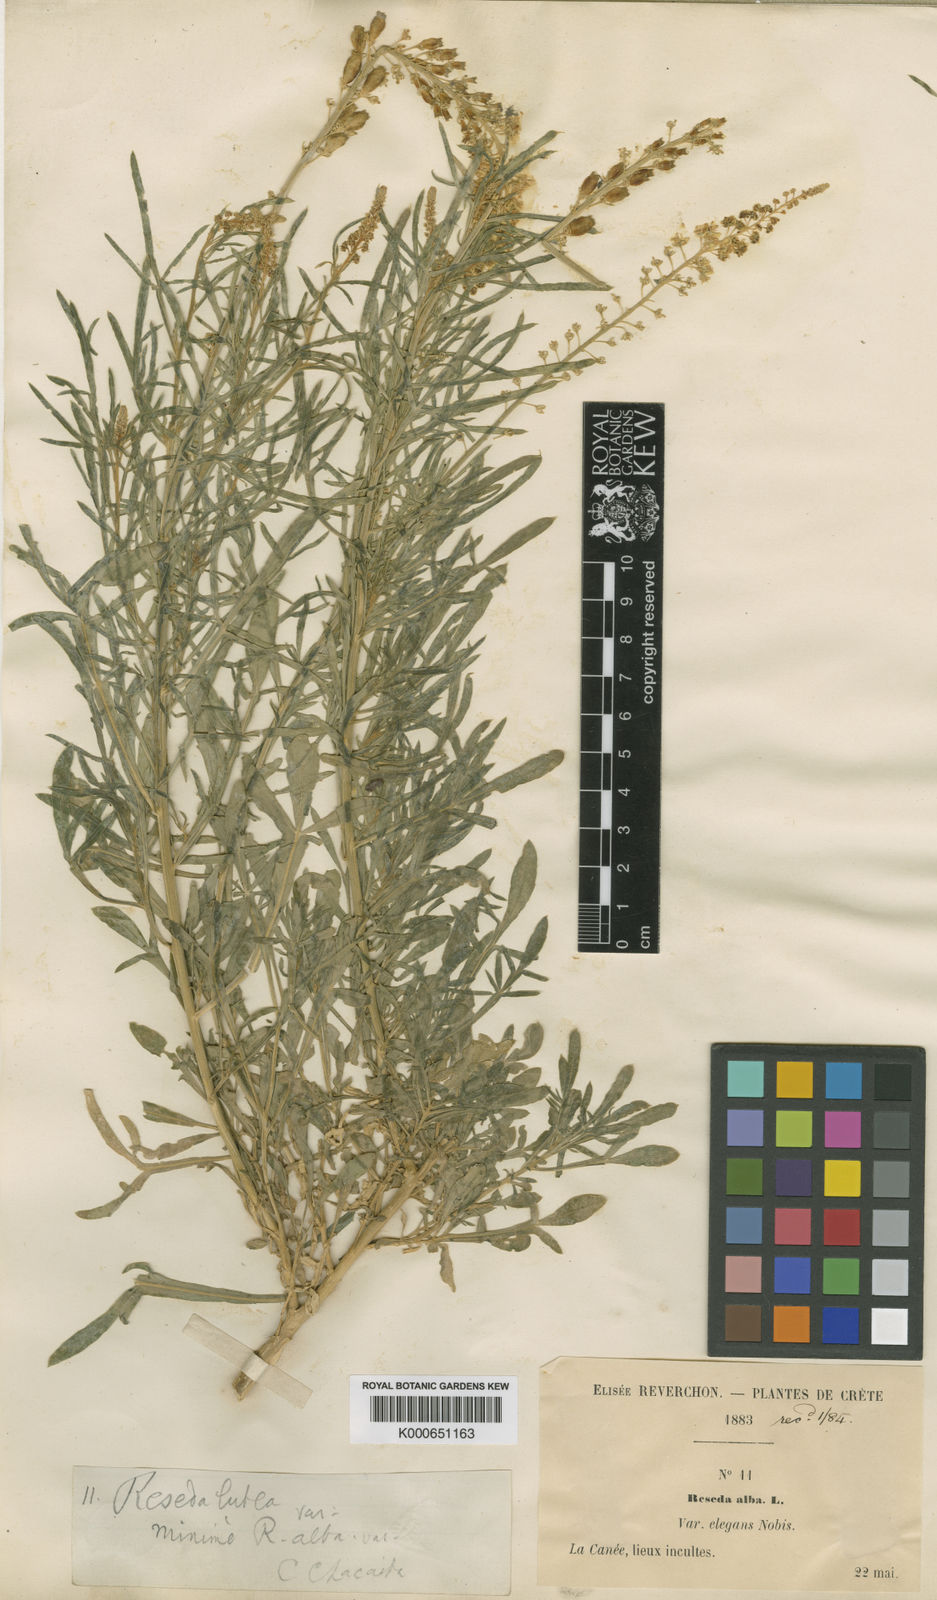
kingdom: Plantae
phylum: Tracheophyta
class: Magnoliopsida
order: Brassicales
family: Resedaceae
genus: Reseda
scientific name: Reseda lutea
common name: Wild mignonette
